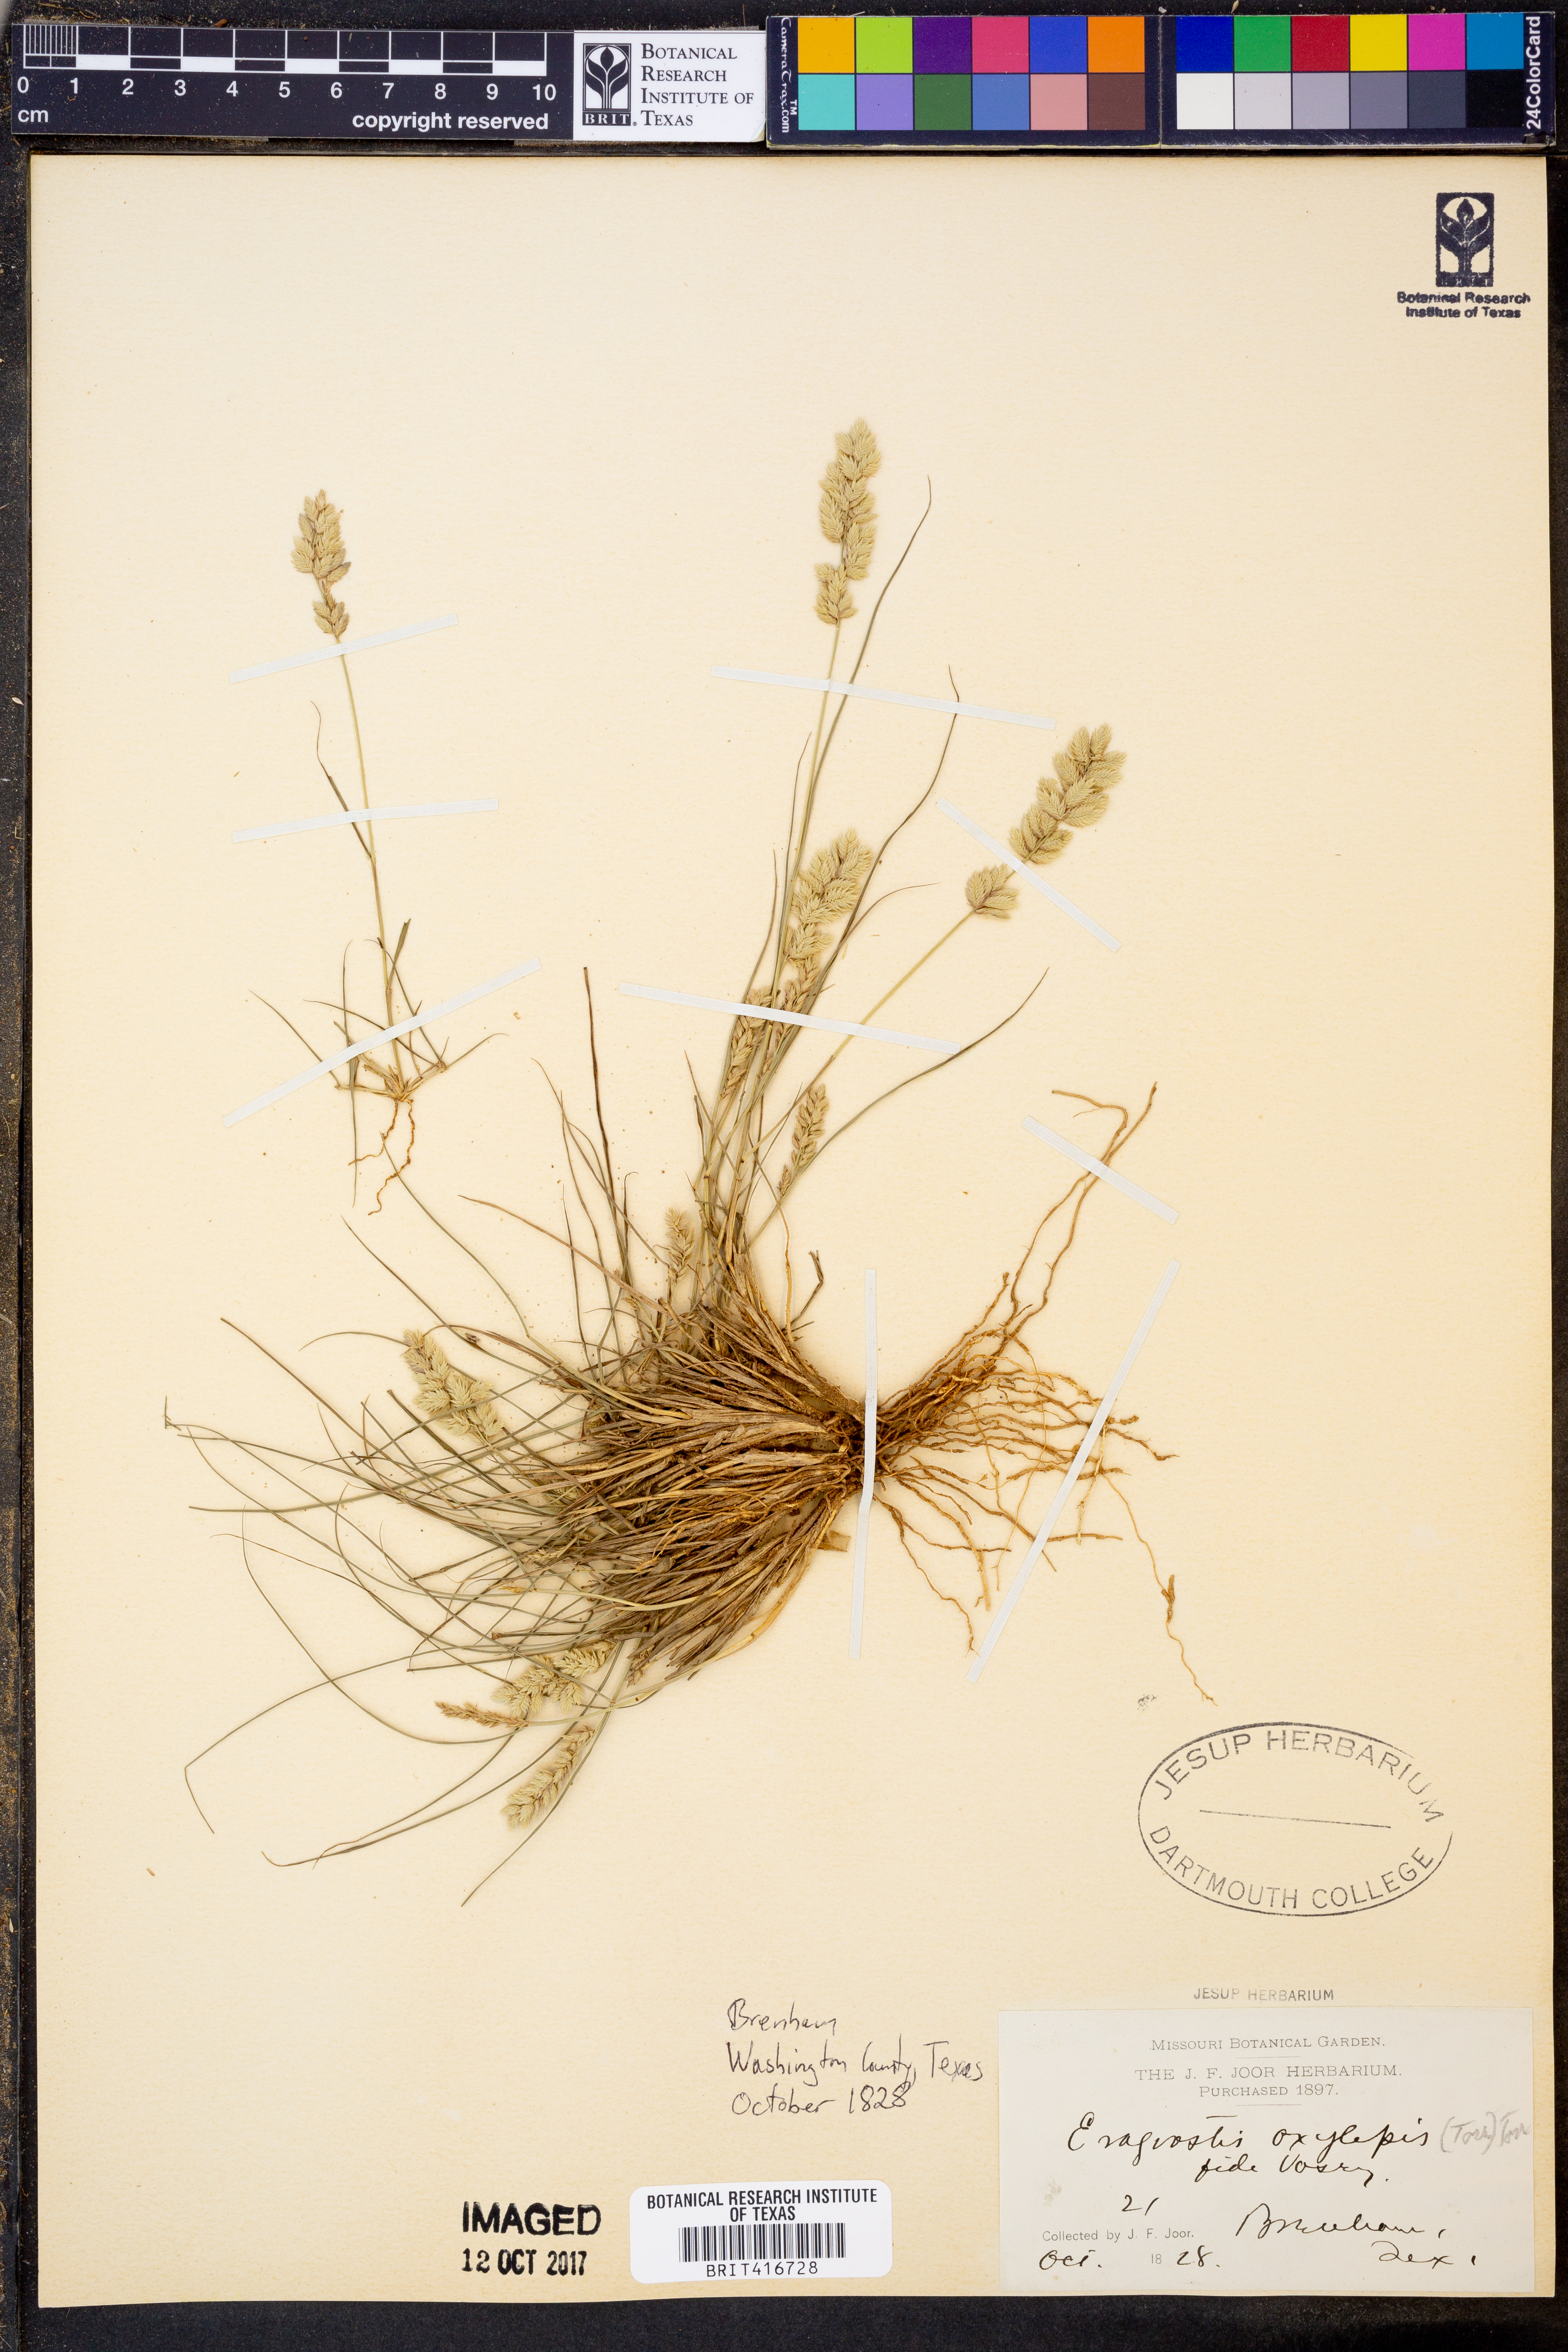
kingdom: Plantae
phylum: Tracheophyta
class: Liliopsida
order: Poales
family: Poaceae
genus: Eragrostis
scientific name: Eragrostis secundiflora
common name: Red love grass
